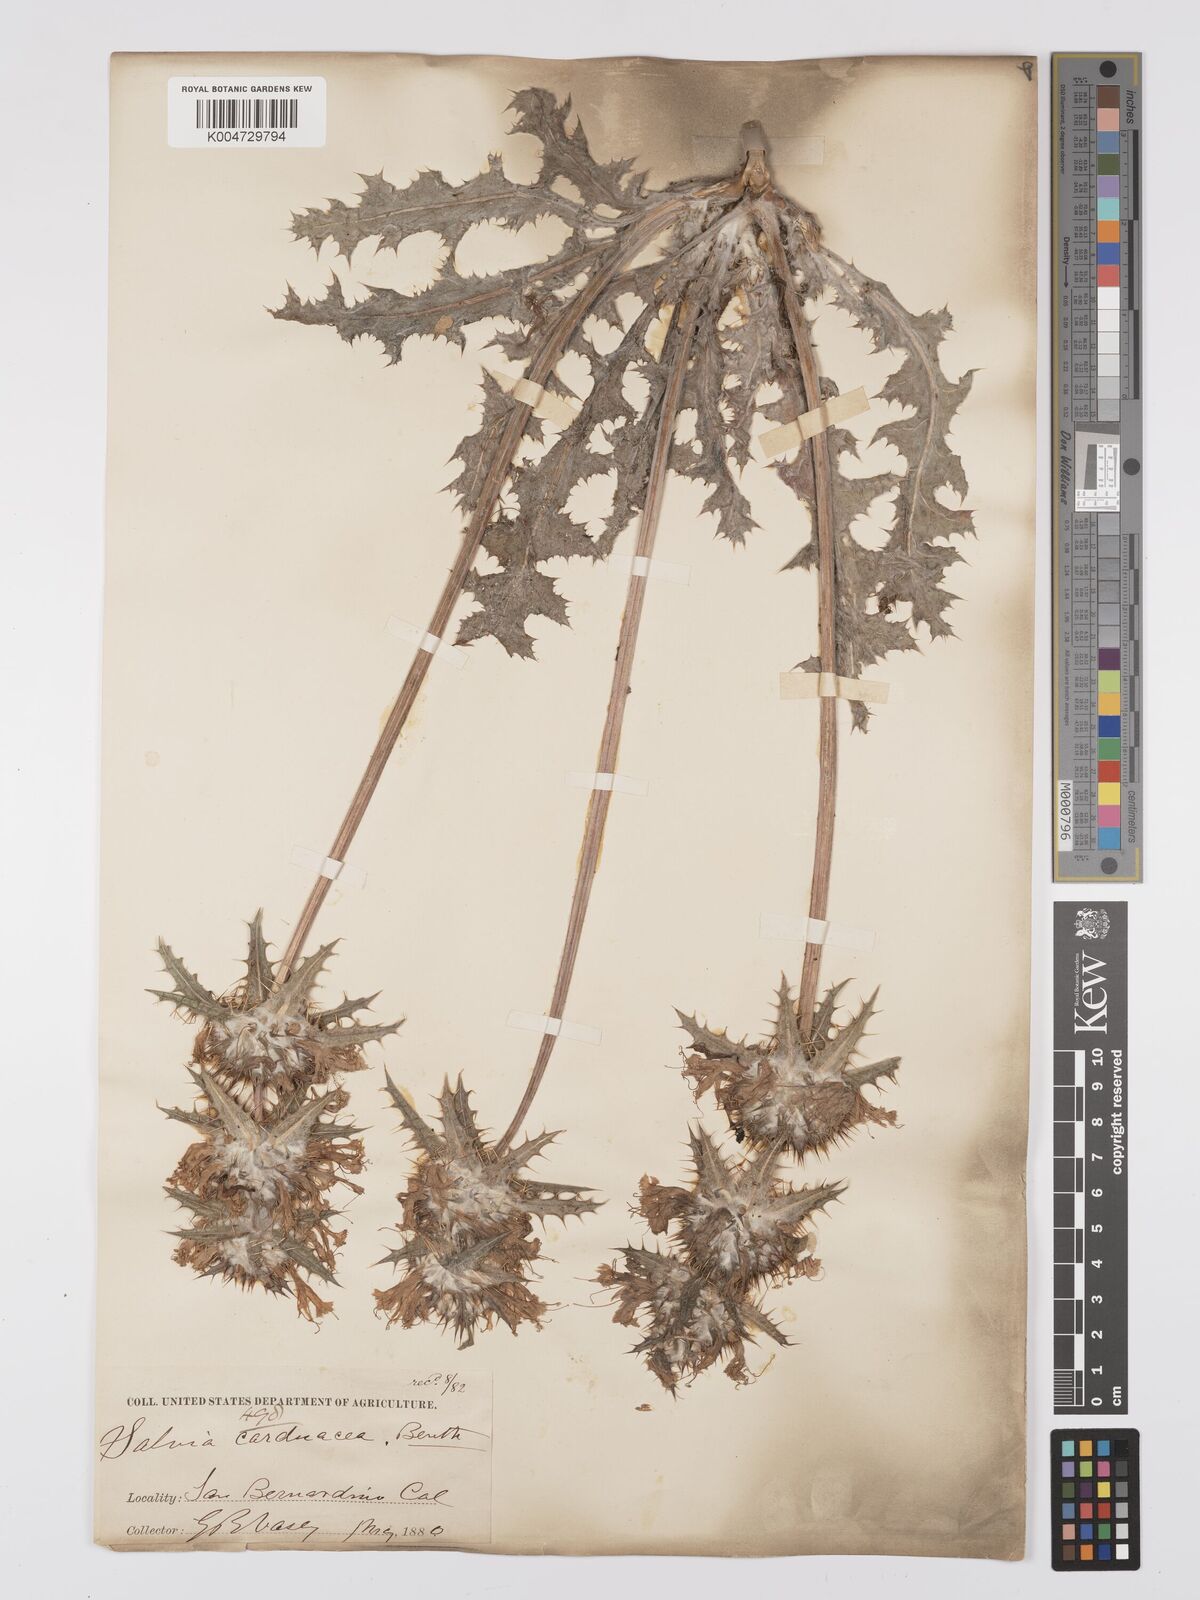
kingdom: Plantae
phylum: Tracheophyta
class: Magnoliopsida
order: Lamiales
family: Lamiaceae
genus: Salvia
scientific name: Salvia carduacea
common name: Thistle sage
